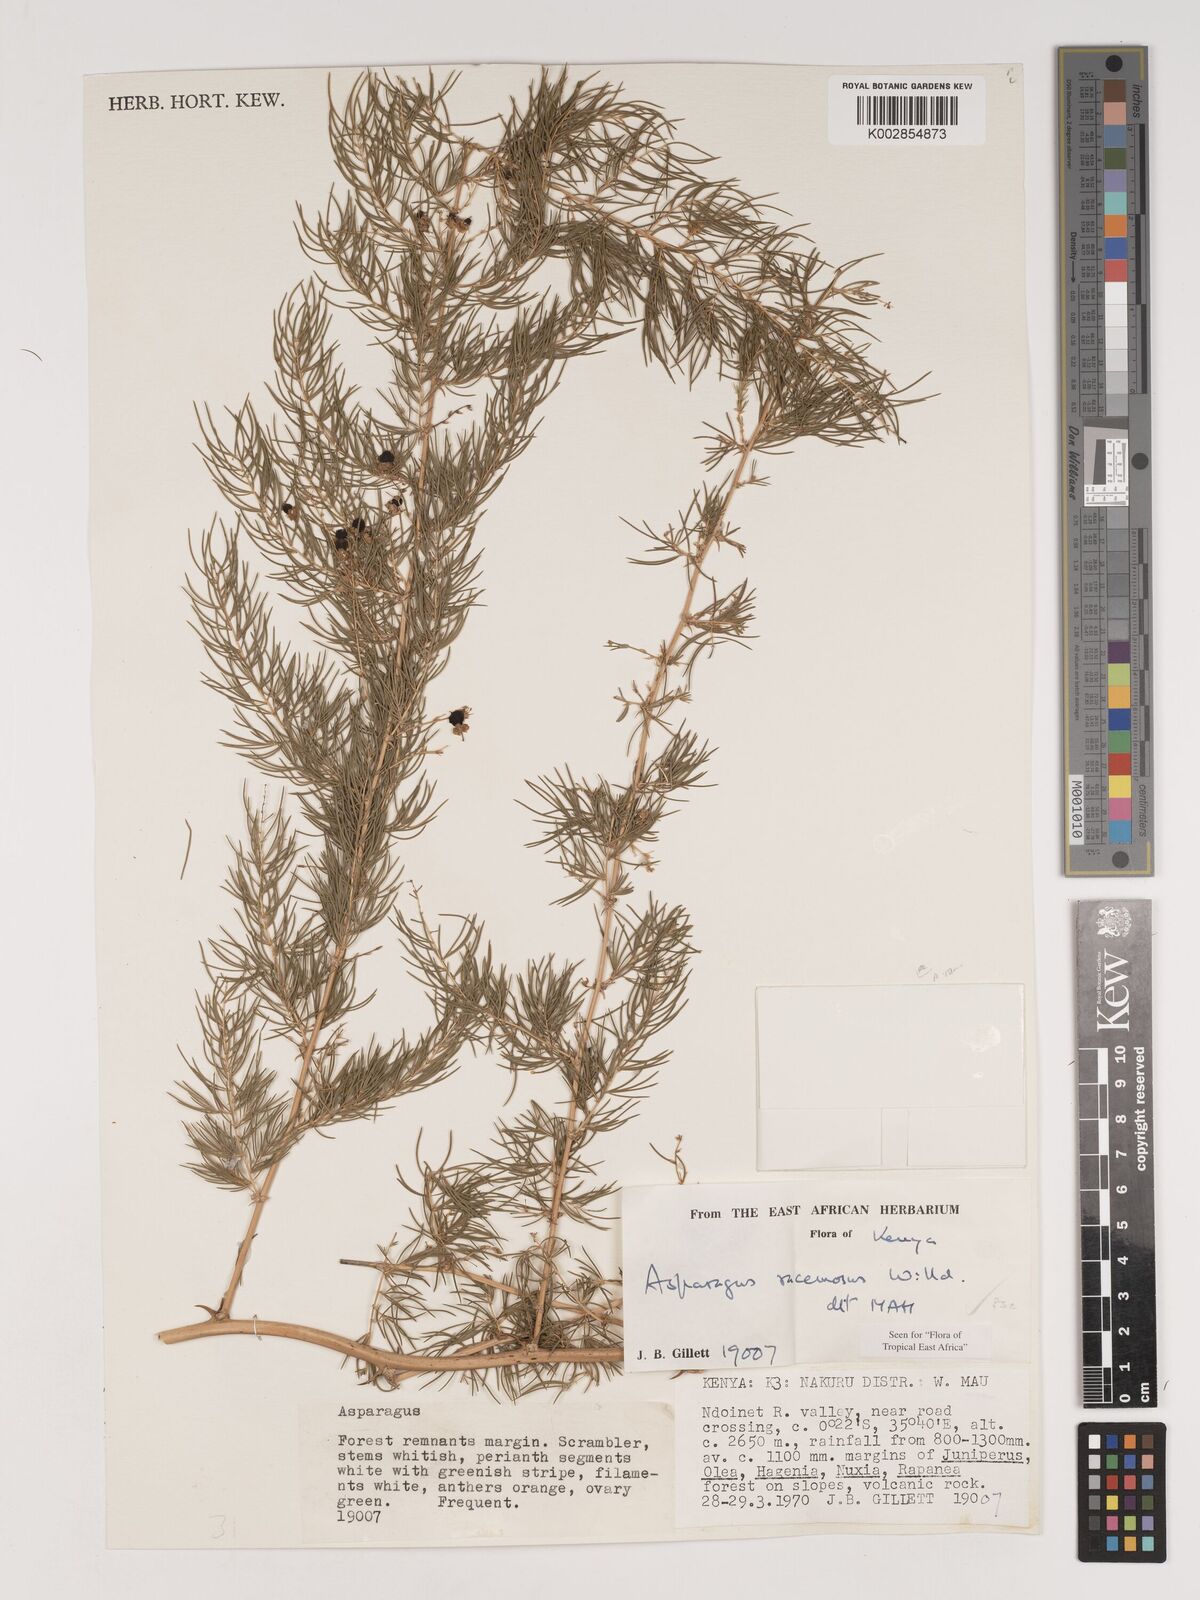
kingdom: Plantae
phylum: Tracheophyta
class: Liliopsida
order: Asparagales
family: Asparagaceae
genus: Asparagus
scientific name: Asparagus racemosus
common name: Asparagus-fern
